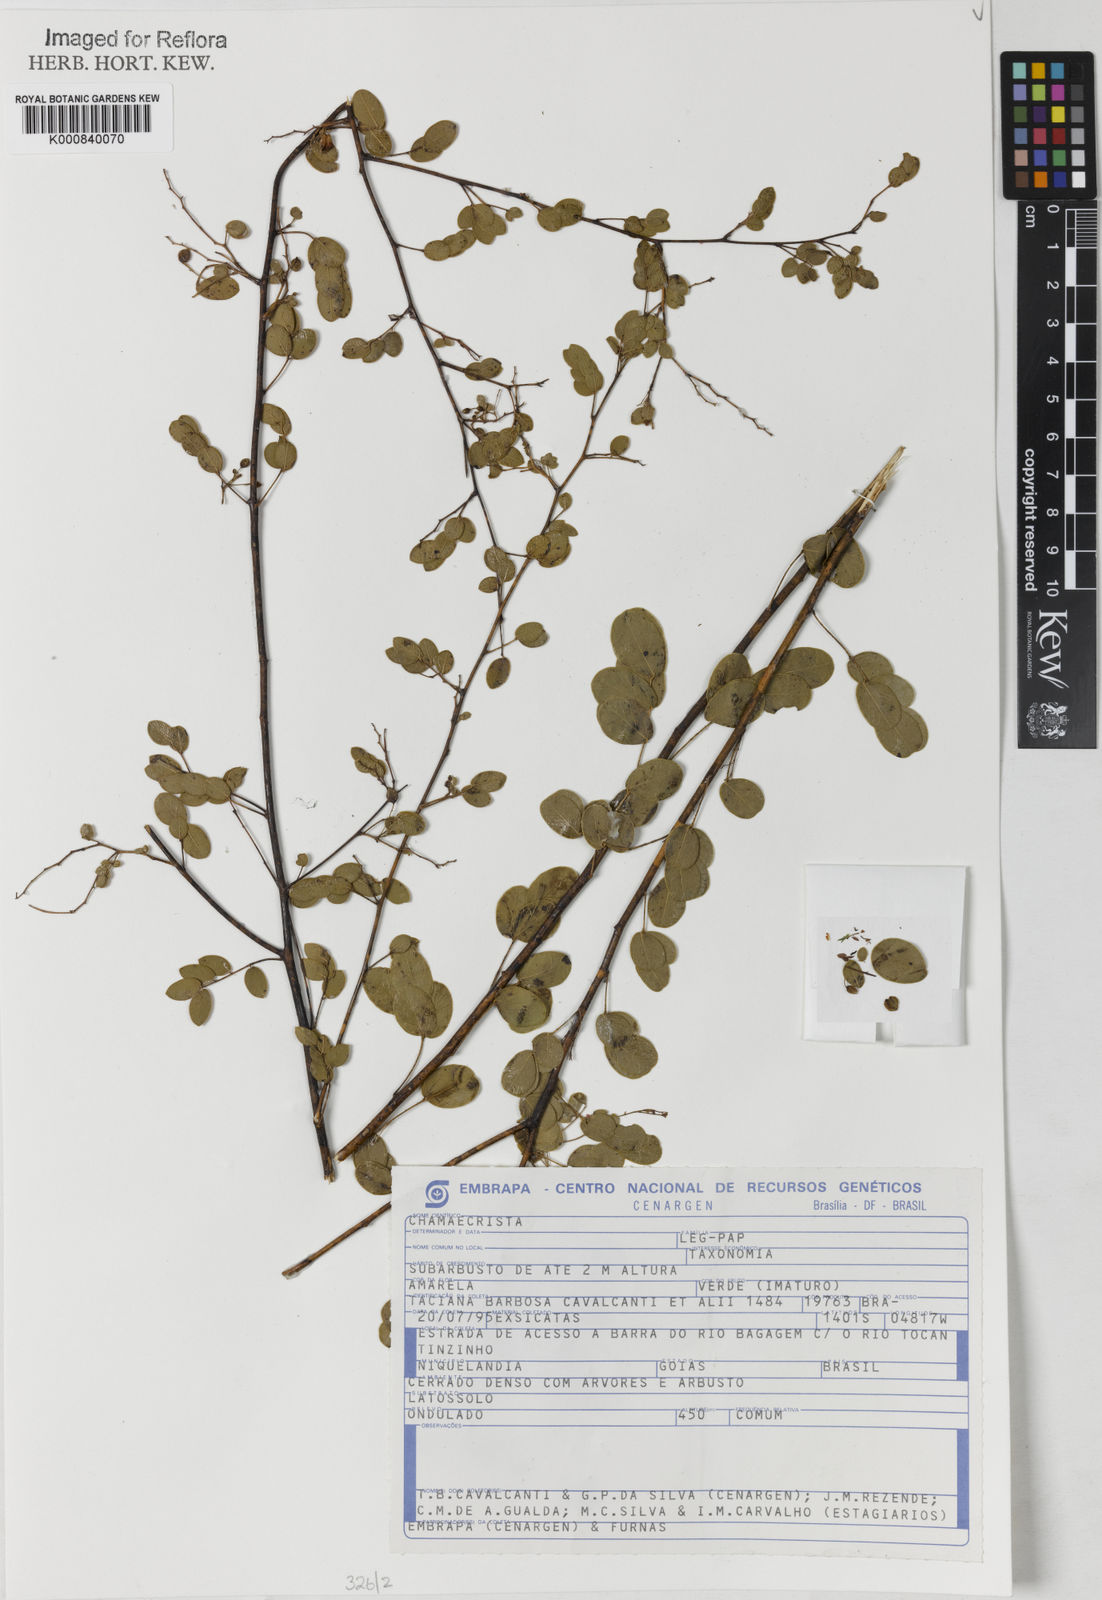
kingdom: Plantae
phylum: Tracheophyta
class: Magnoliopsida
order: Fabales
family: Fabaceae
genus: Chamaecrista
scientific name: Chamaecrista benthamii
